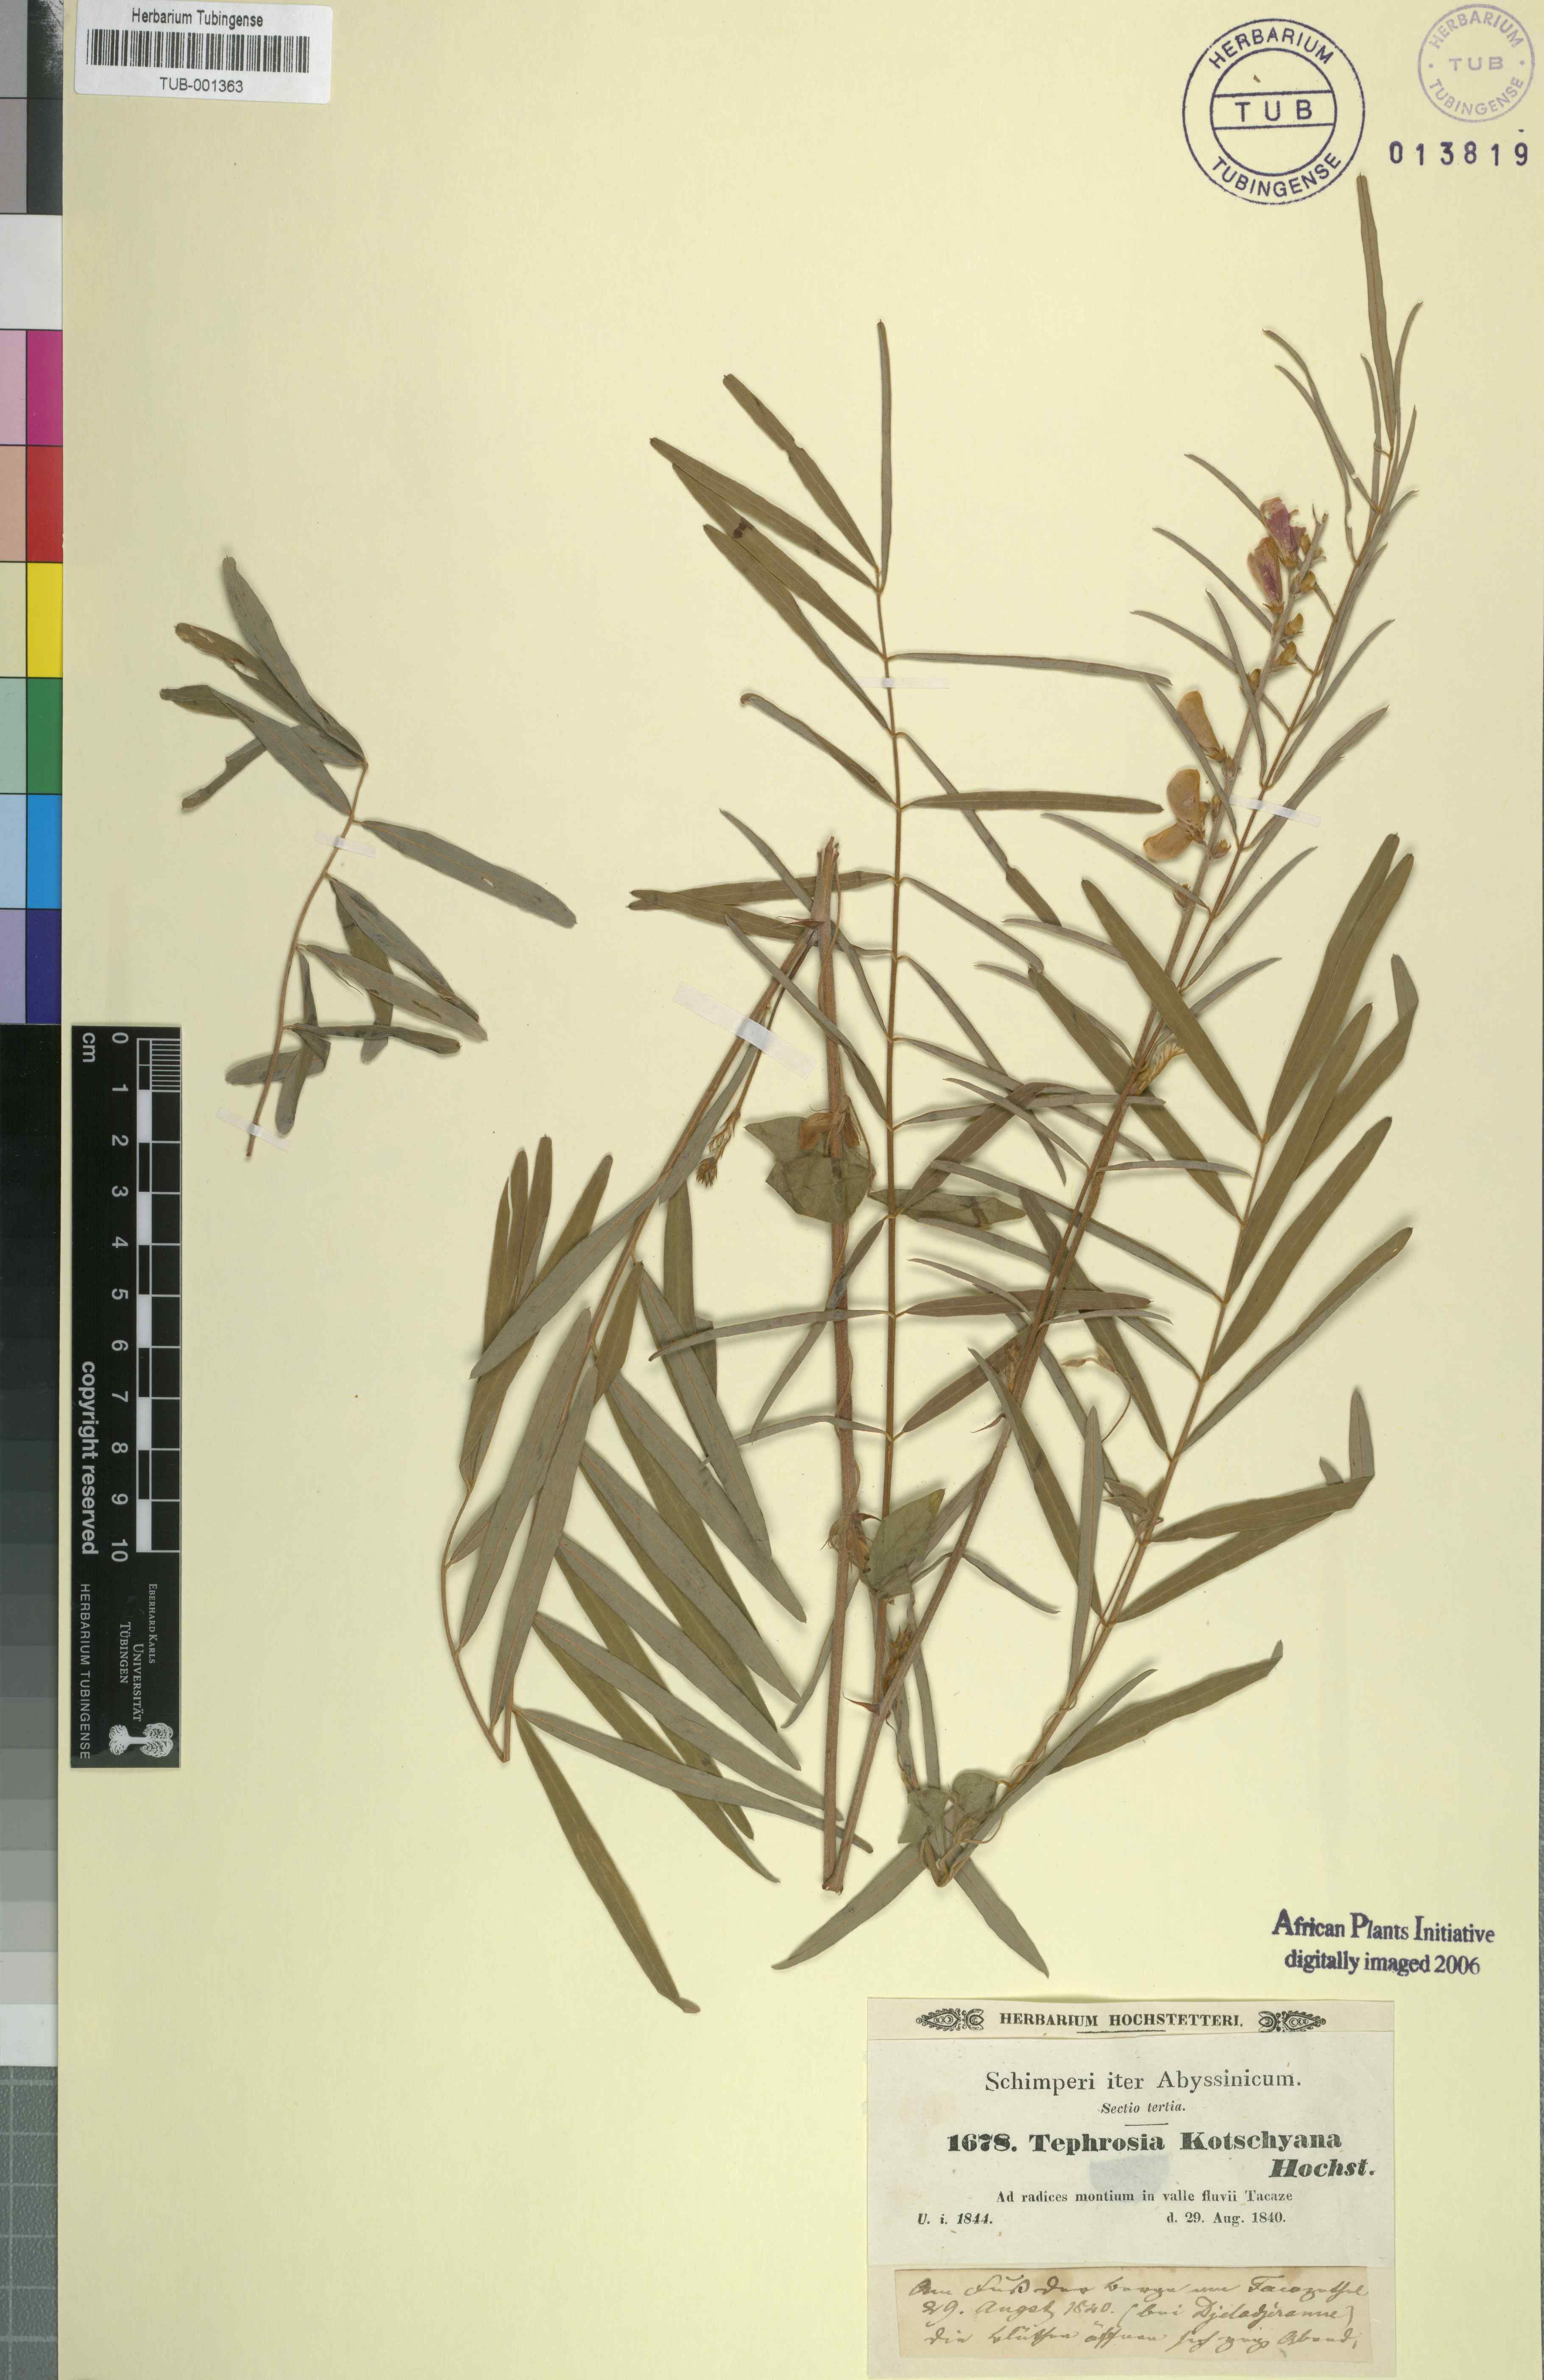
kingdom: Plantae
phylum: Tracheophyta
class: Magnoliopsida
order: Fabales
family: Fabaceae
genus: Tephrosia
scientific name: Tephrosia bracteolata
